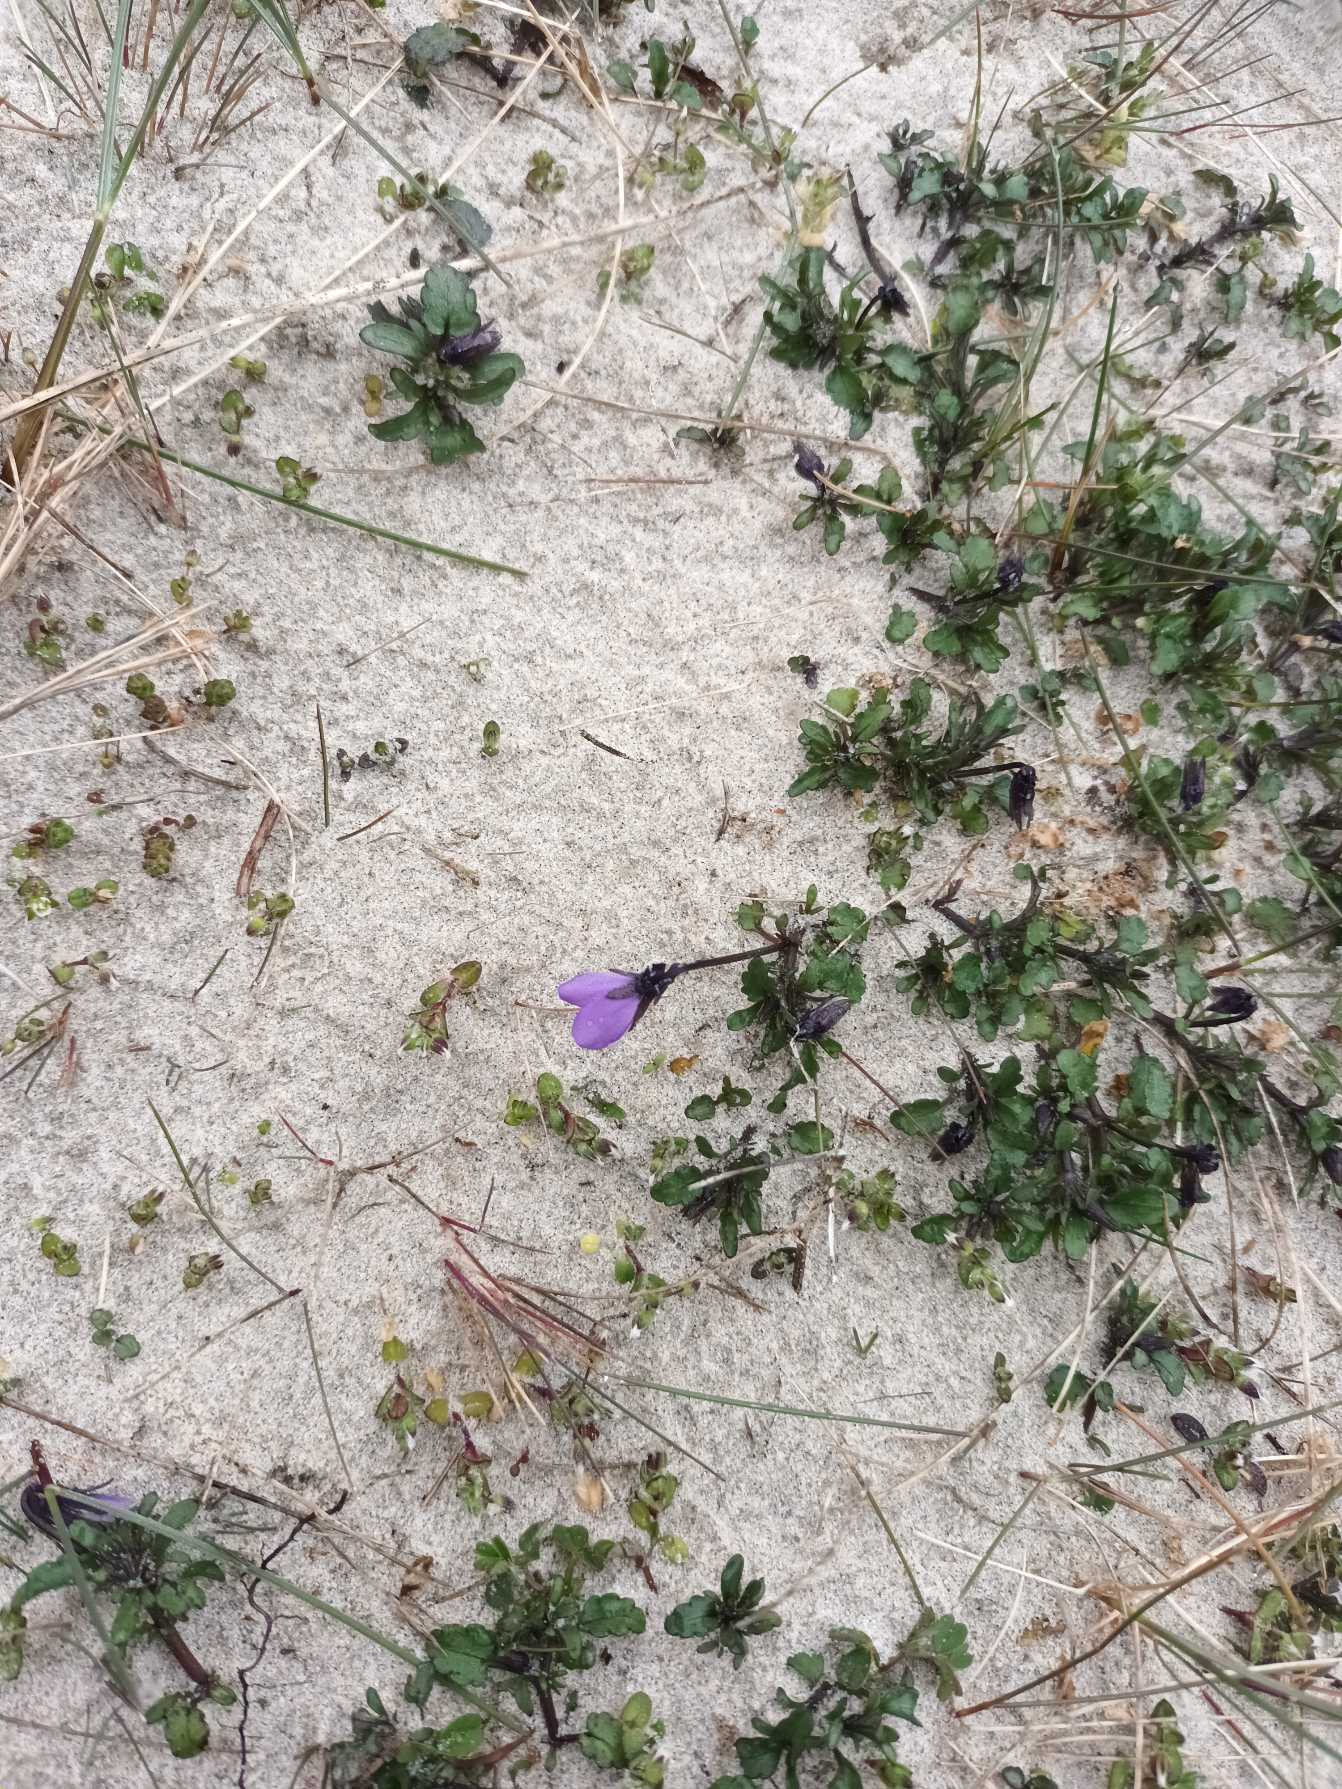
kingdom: Plantae
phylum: Tracheophyta
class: Magnoliopsida
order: Malpighiales
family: Violaceae
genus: Viola
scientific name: Viola tricolor
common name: Klit-stedmoderblomst
